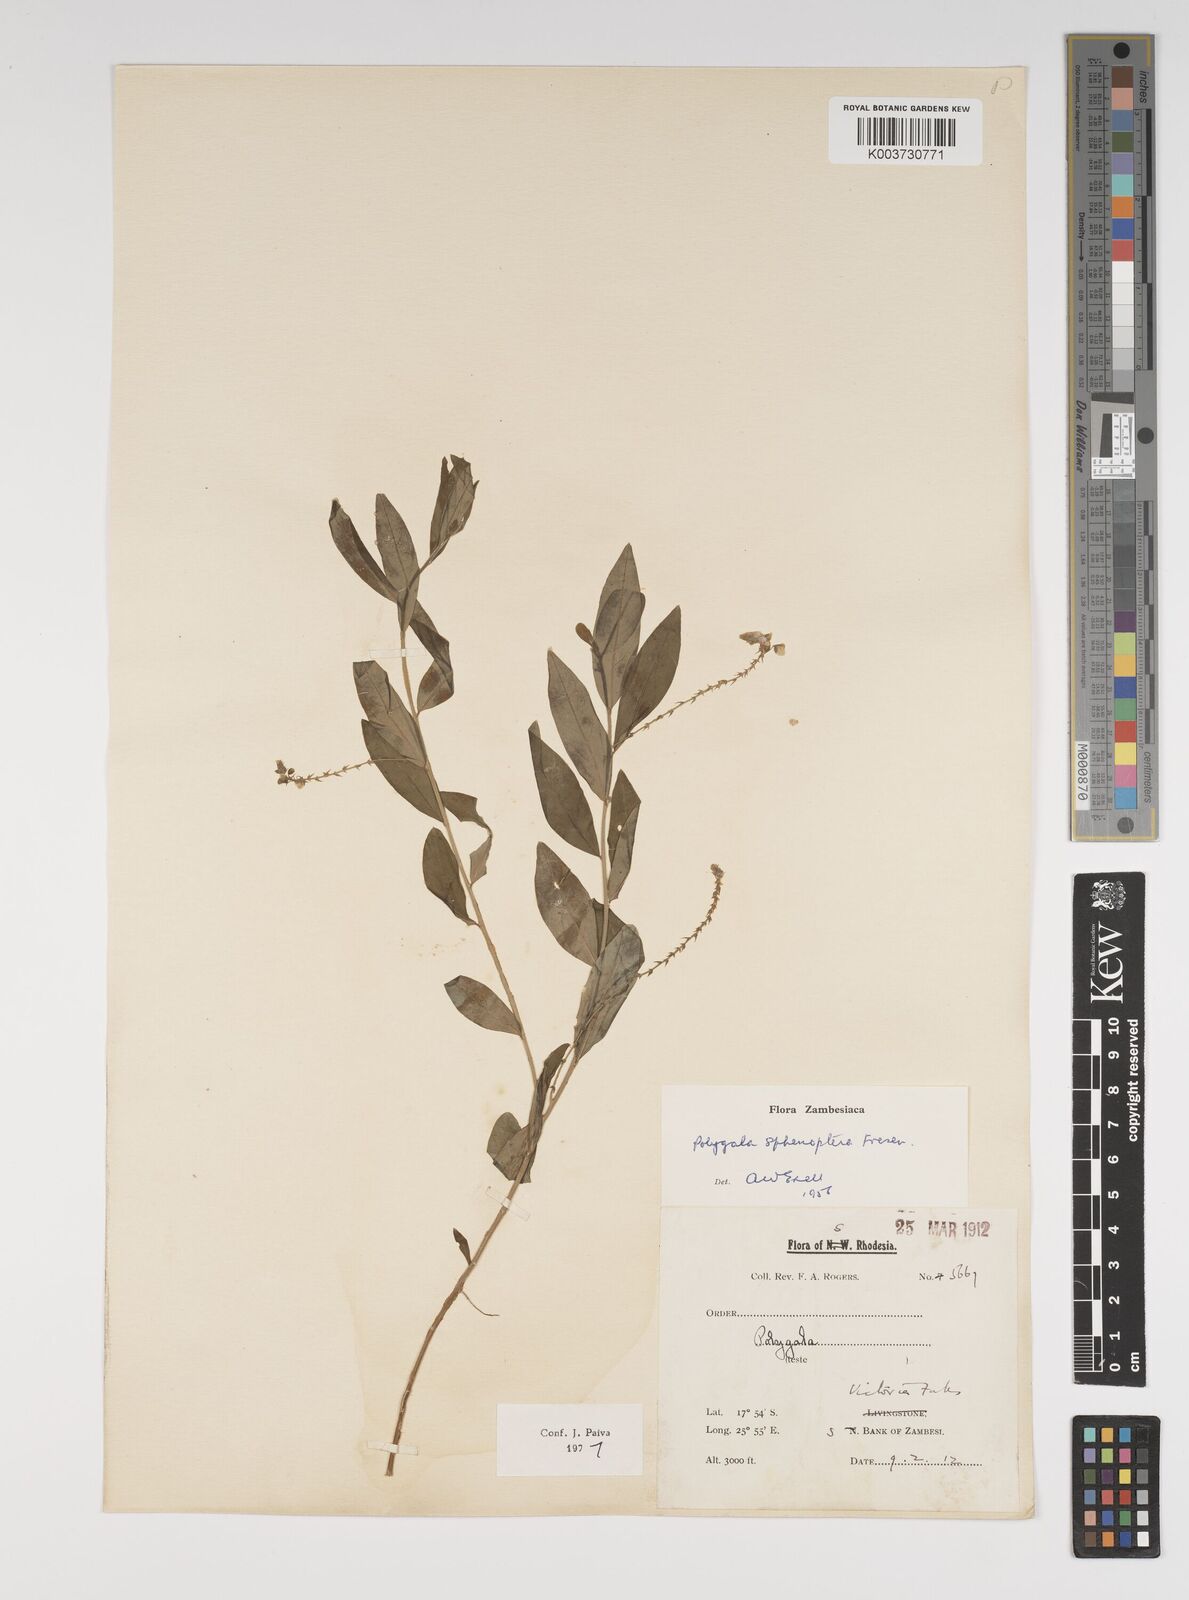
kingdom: Plantae
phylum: Tracheophyta
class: Magnoliopsida
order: Fabales
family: Polygalaceae
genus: Polygala
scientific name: Polygala sphenoptera
